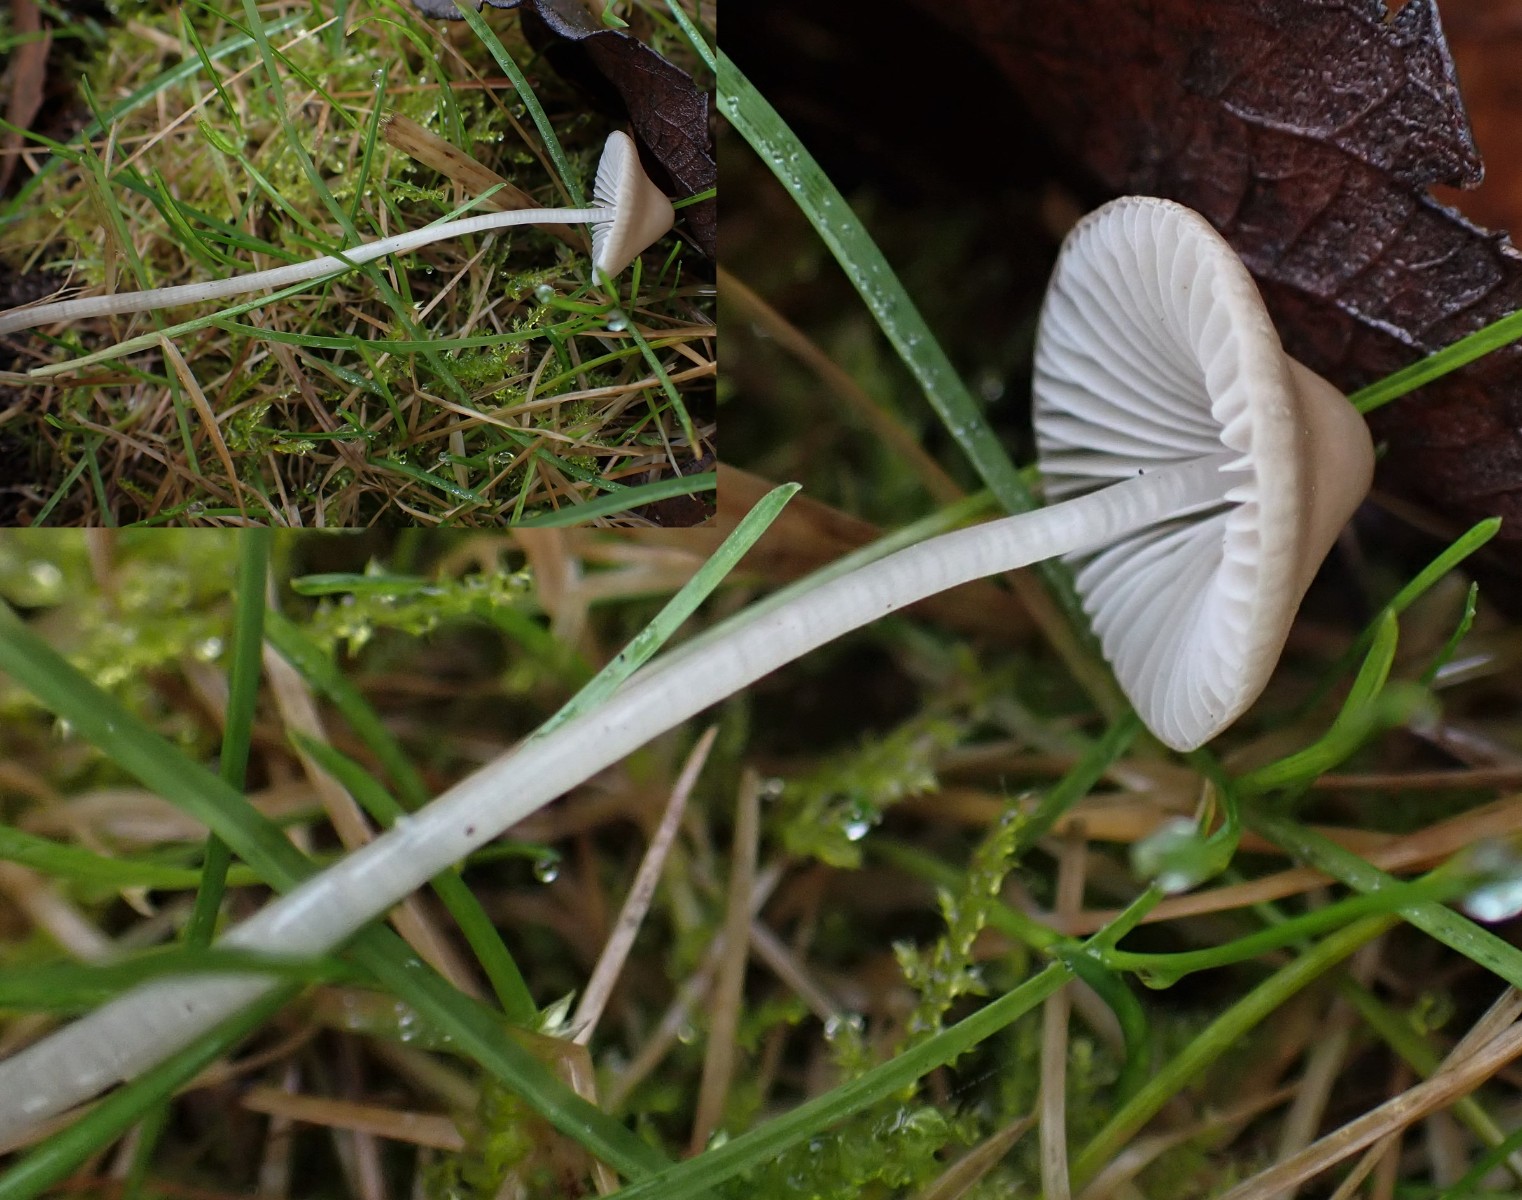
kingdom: Fungi
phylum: Basidiomycota
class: Agaricomycetes
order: Agaricales
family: Mycenaceae
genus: Mycena
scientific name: Mycena vitilis
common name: blankstokket huesvamp
